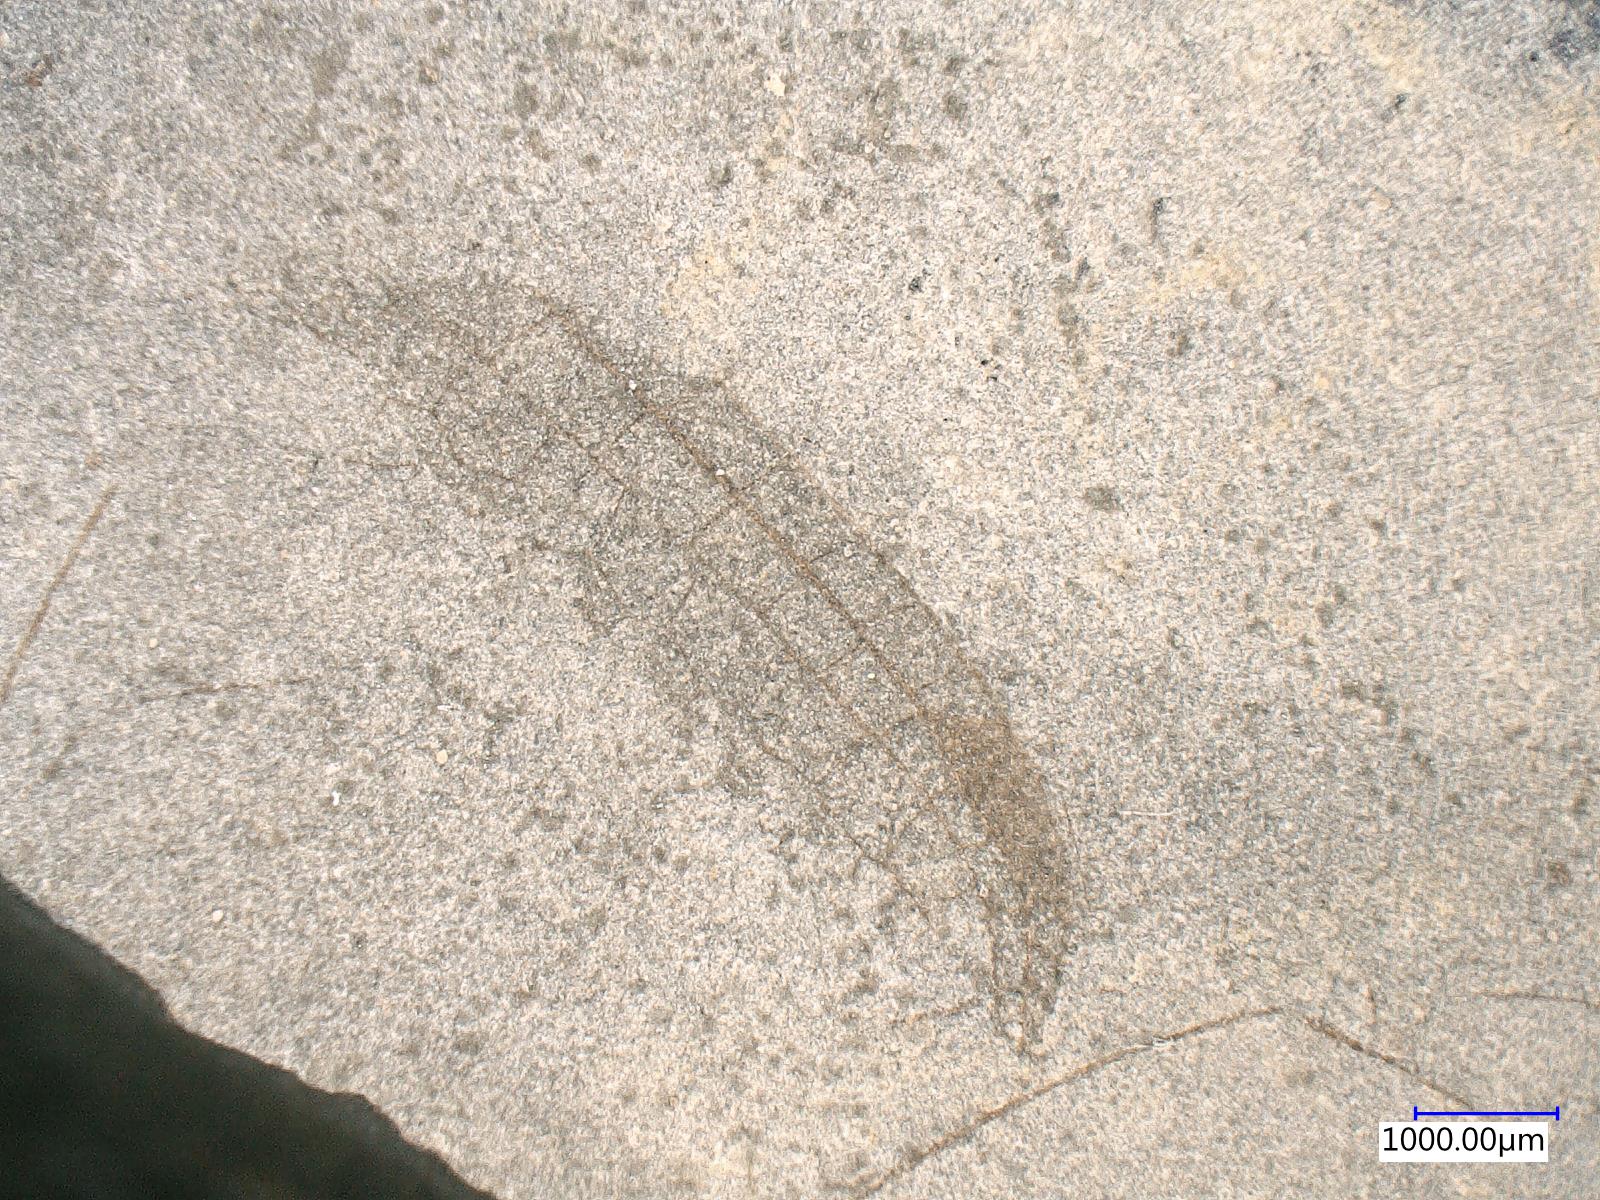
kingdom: Animalia
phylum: Arthropoda
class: Insecta
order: Odonata
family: Protomyrmeleontidae
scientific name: Protomyrmeleontidae
